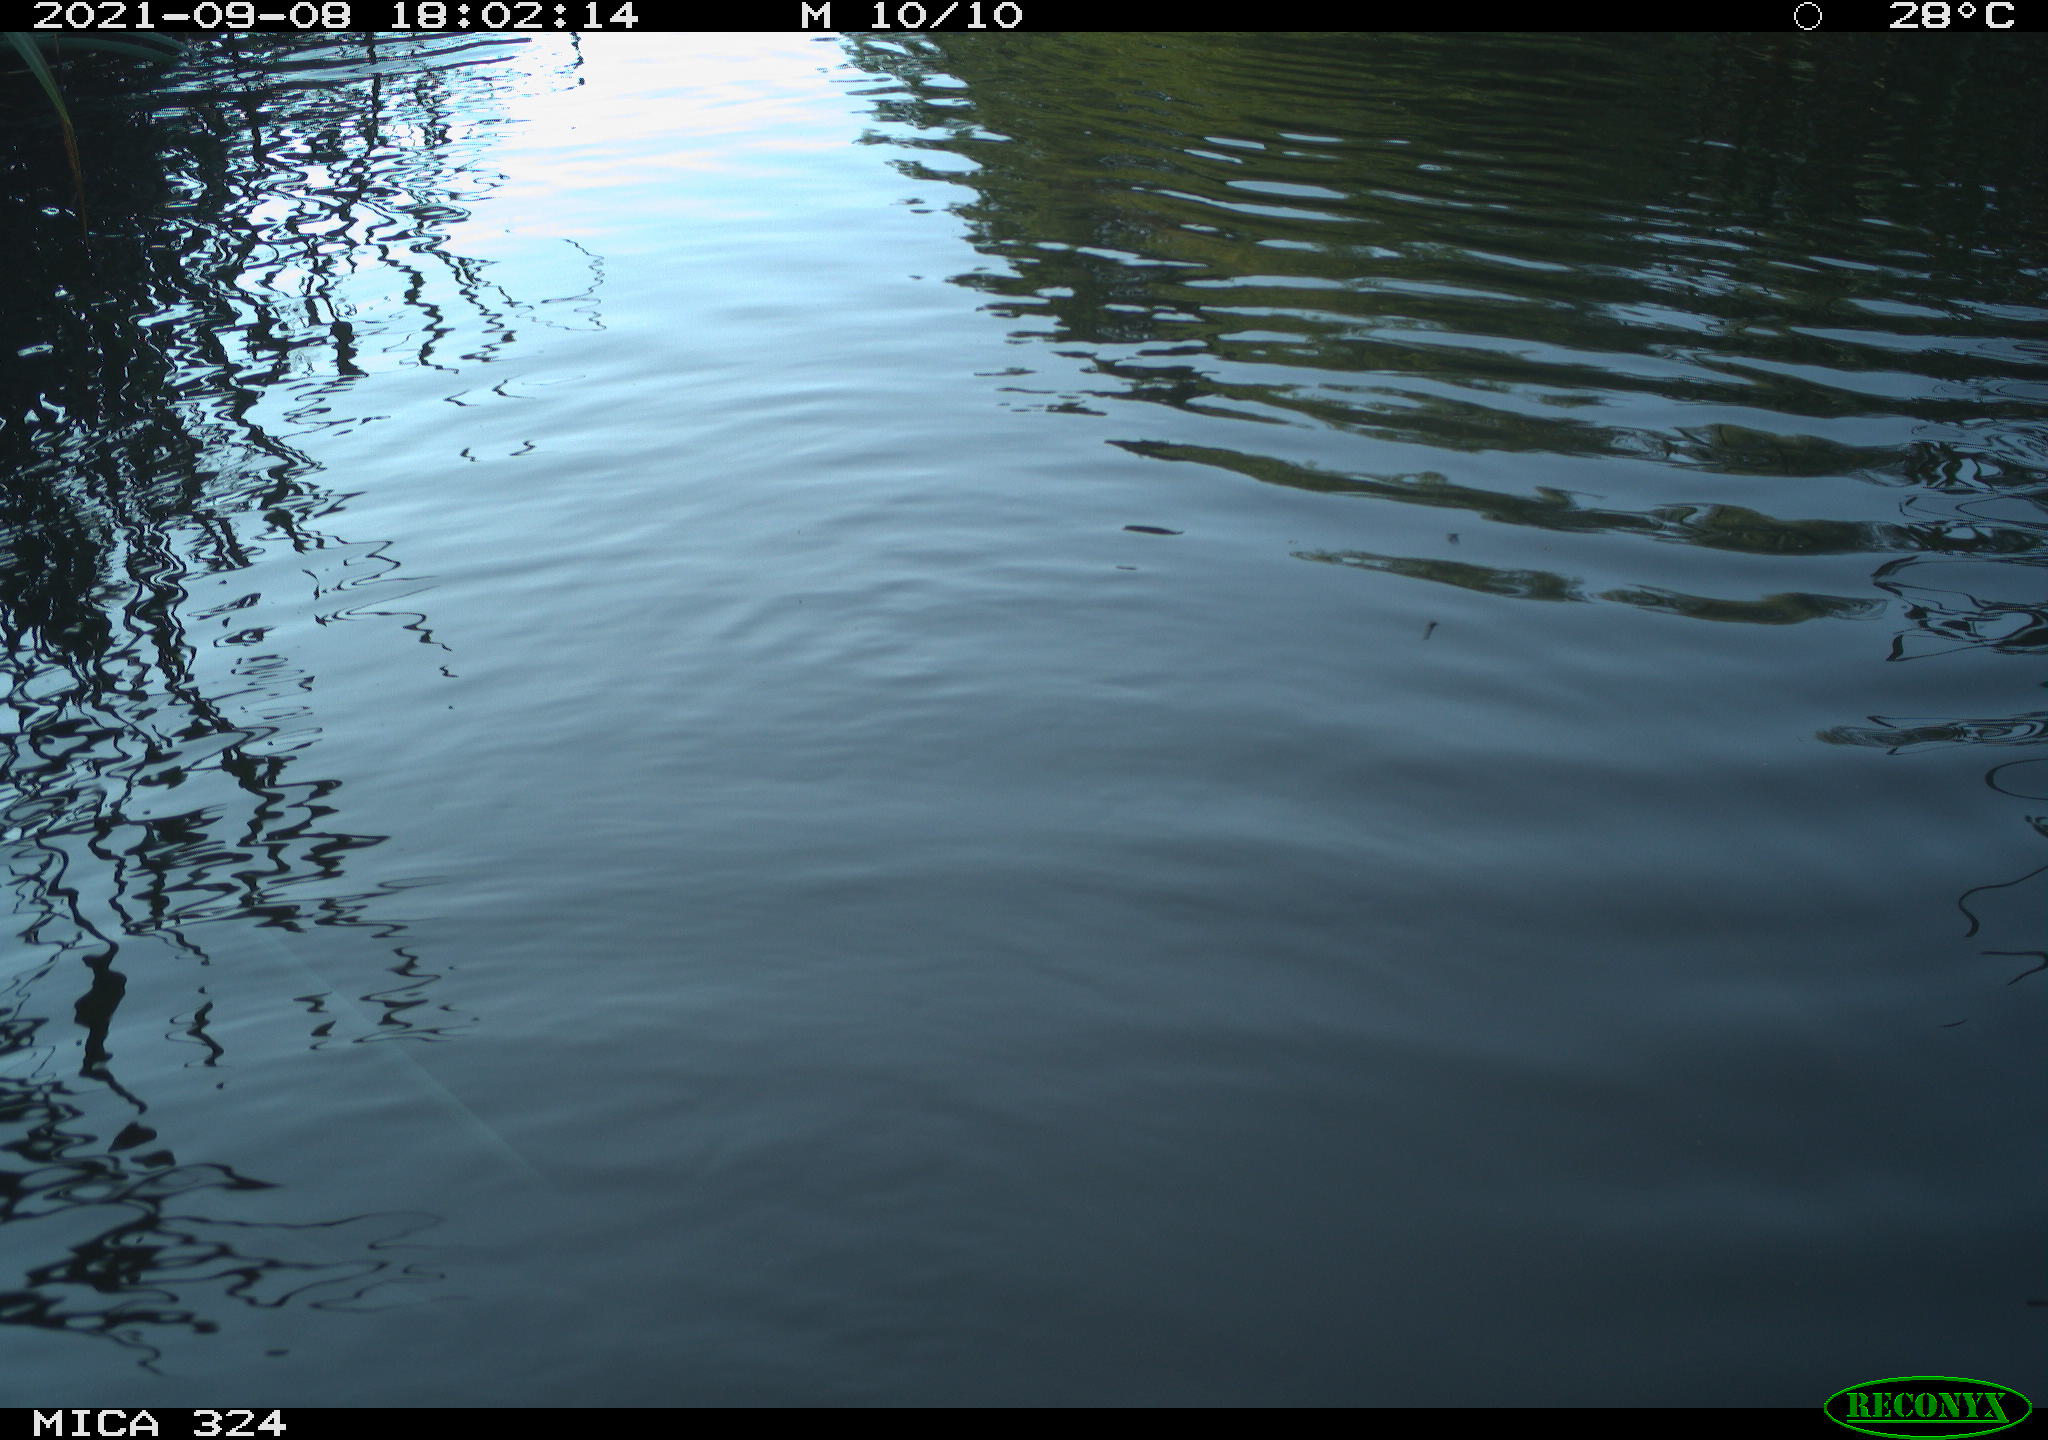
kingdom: Animalia
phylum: Chordata
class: Mammalia
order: Rodentia
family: Cricetidae
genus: Ondatra
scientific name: Ondatra zibethicus
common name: Muskrat
